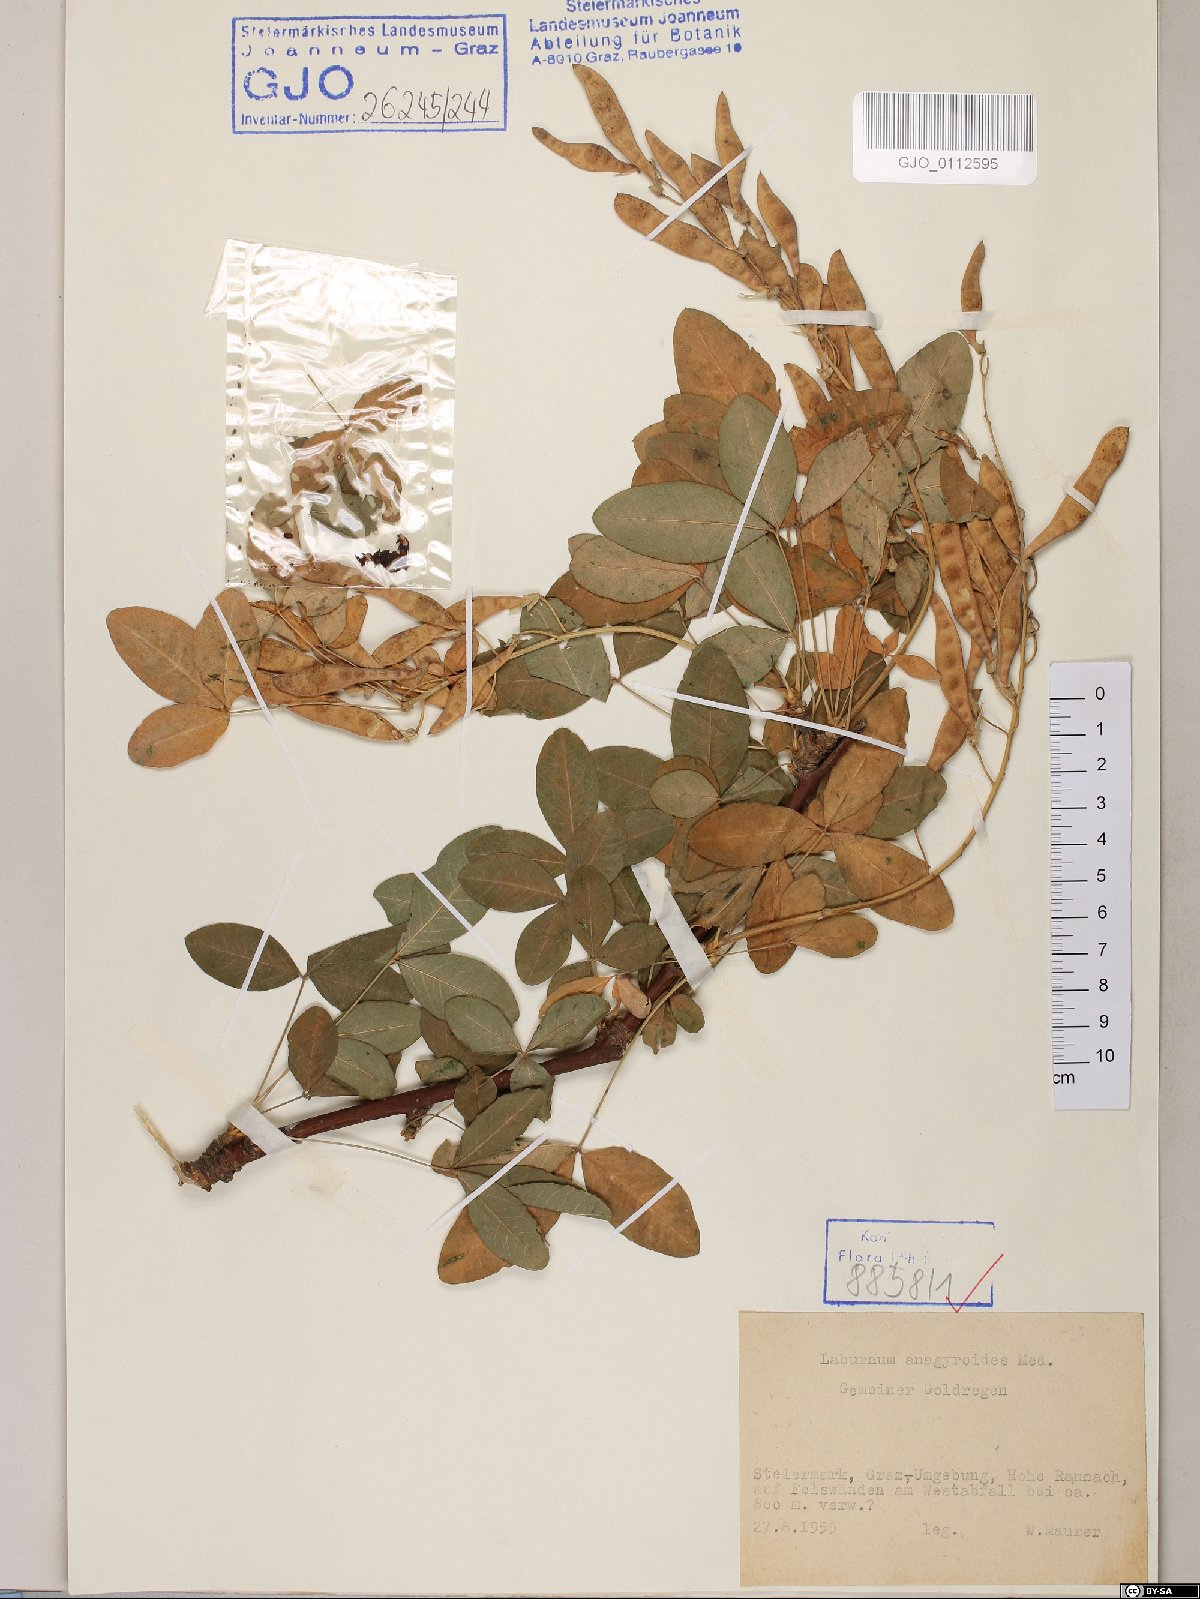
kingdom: Plantae
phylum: Tracheophyta
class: Magnoliopsida
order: Fabales
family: Fabaceae
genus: Laburnum
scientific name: Laburnum anagyroides
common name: Laburnum
